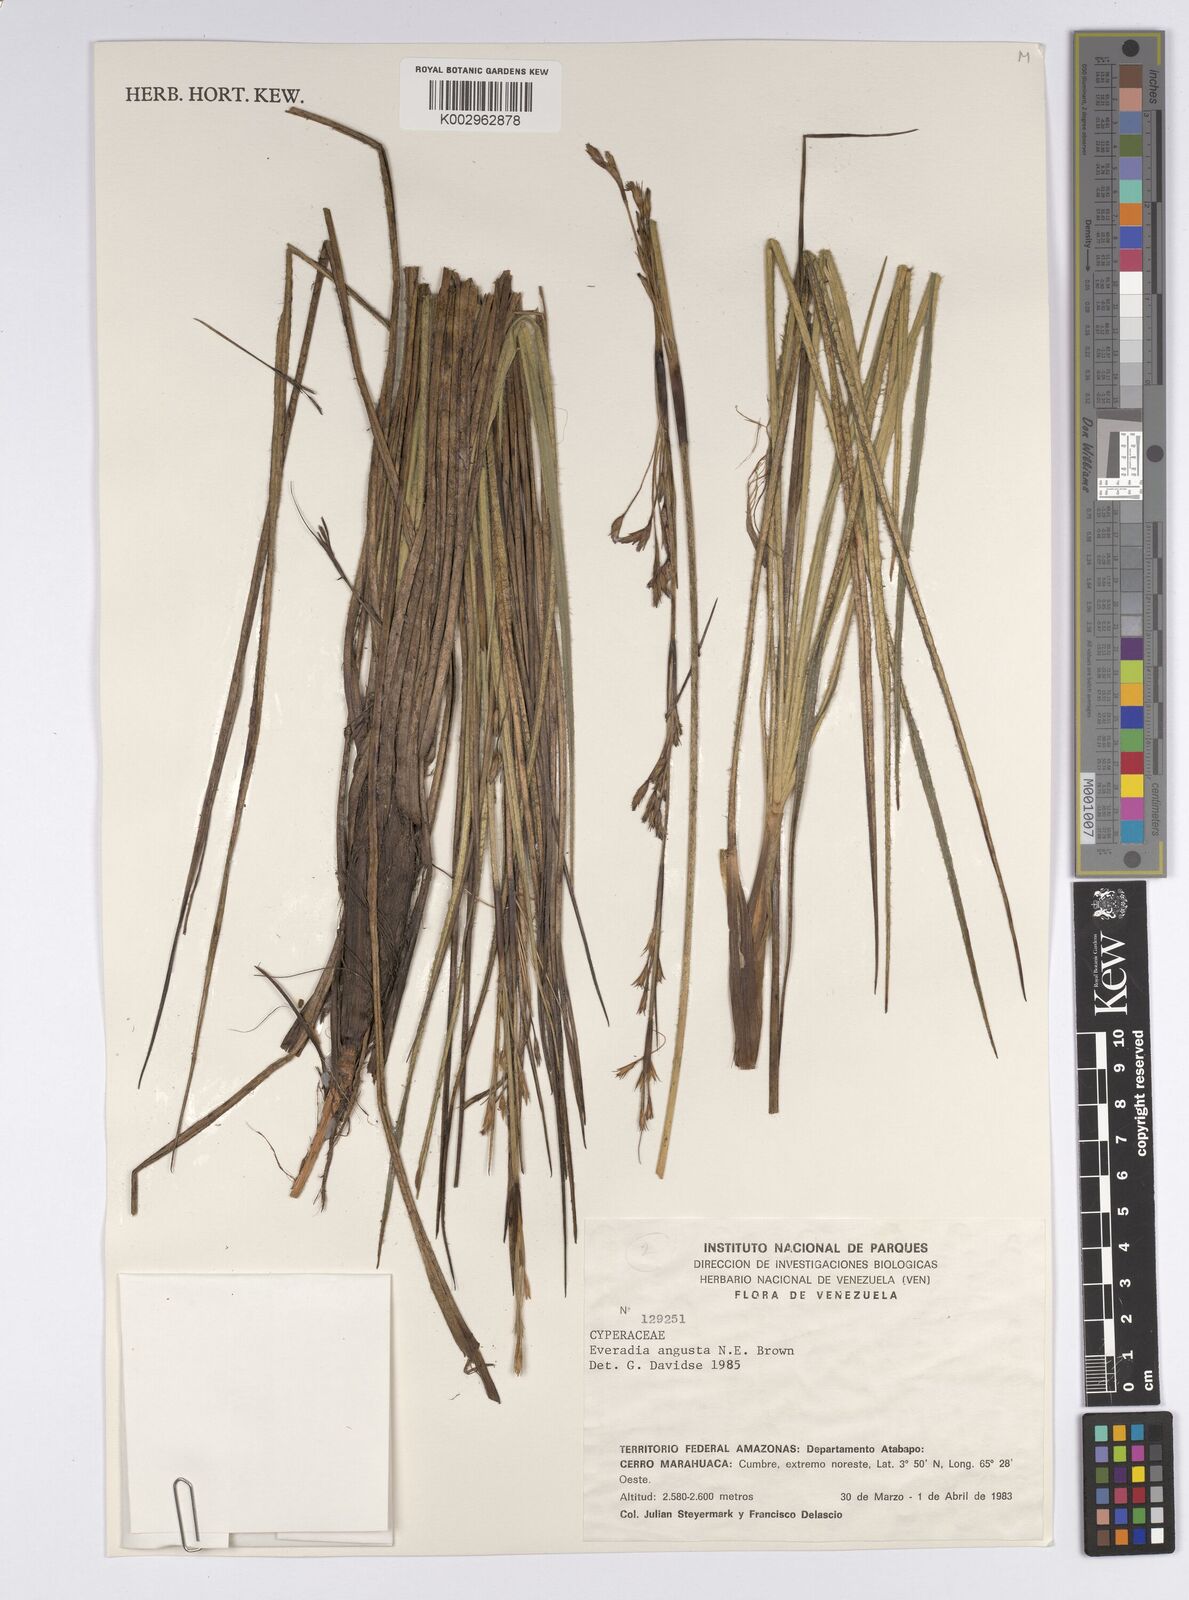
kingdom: Plantae
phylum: Tracheophyta
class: Liliopsida
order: Poales
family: Cyperaceae
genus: Cephalocarpus
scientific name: Cephalocarpus angustus
